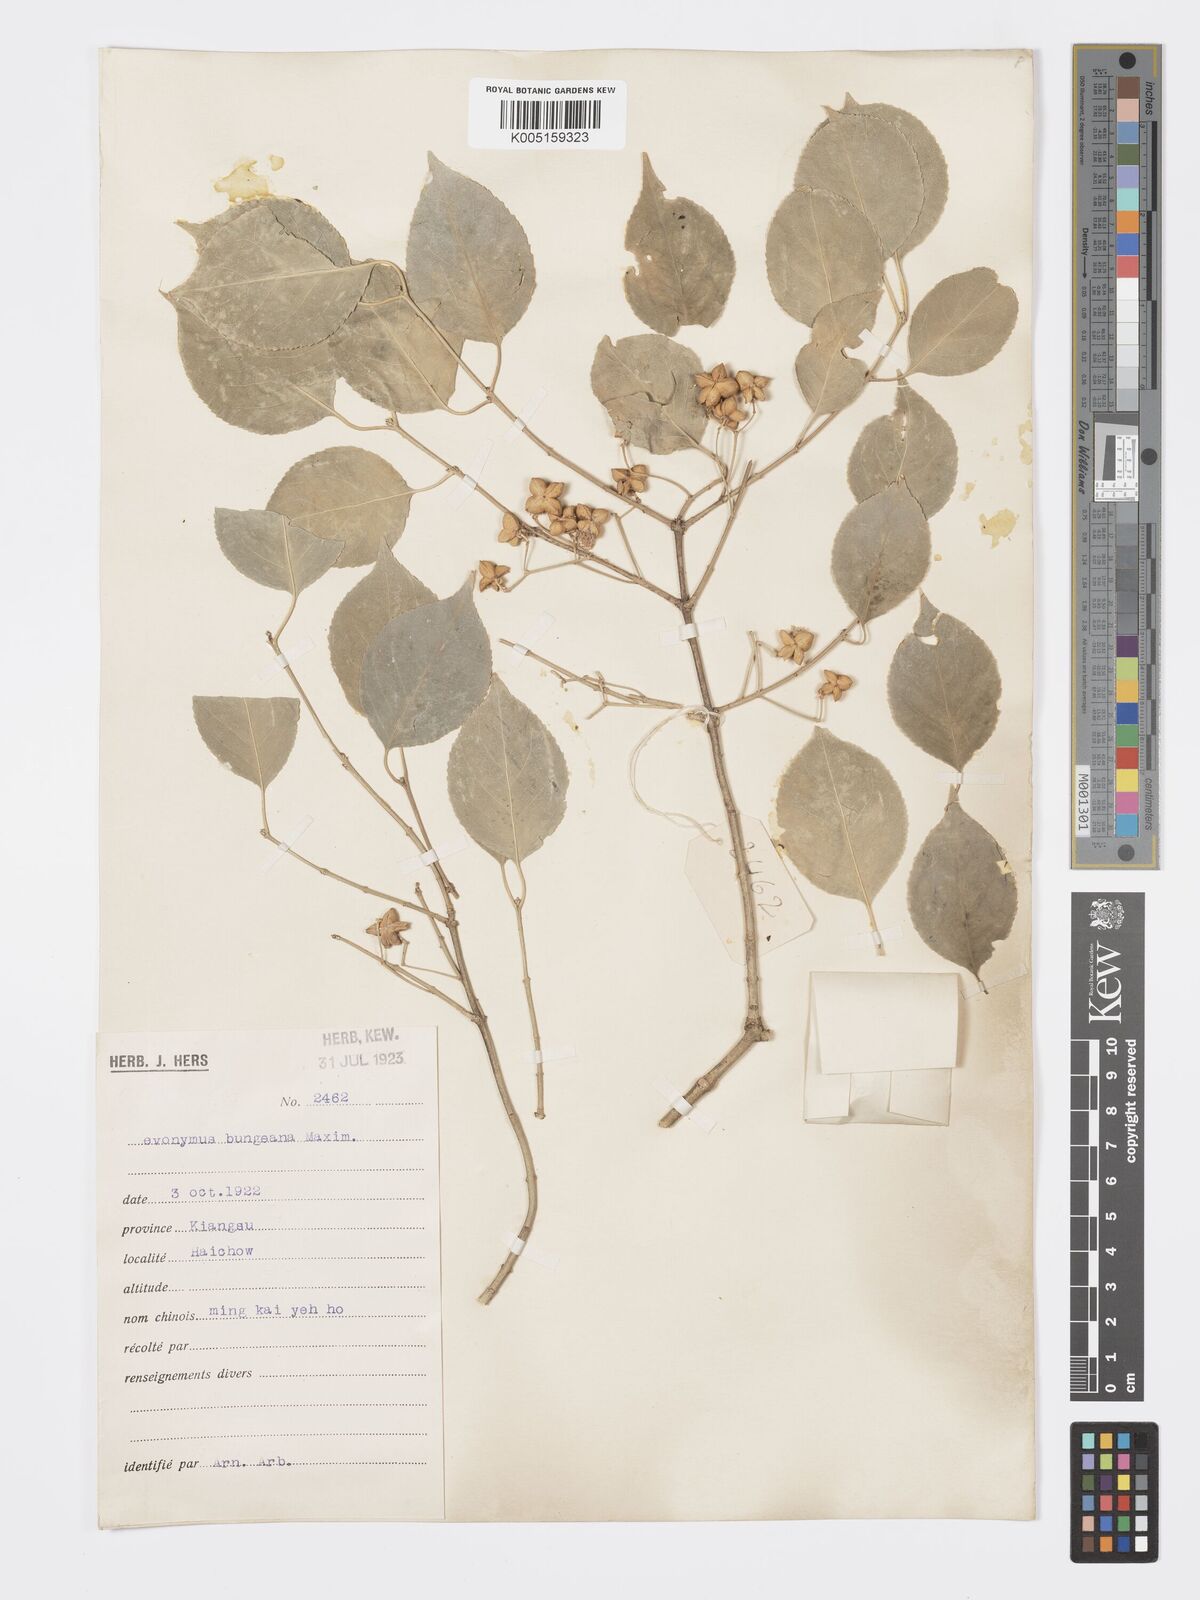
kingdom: Plantae
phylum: Tracheophyta
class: Magnoliopsida
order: Celastrales
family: Celastraceae
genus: Euonymus
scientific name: Euonymus maackii
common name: Hamilton's spindletree
